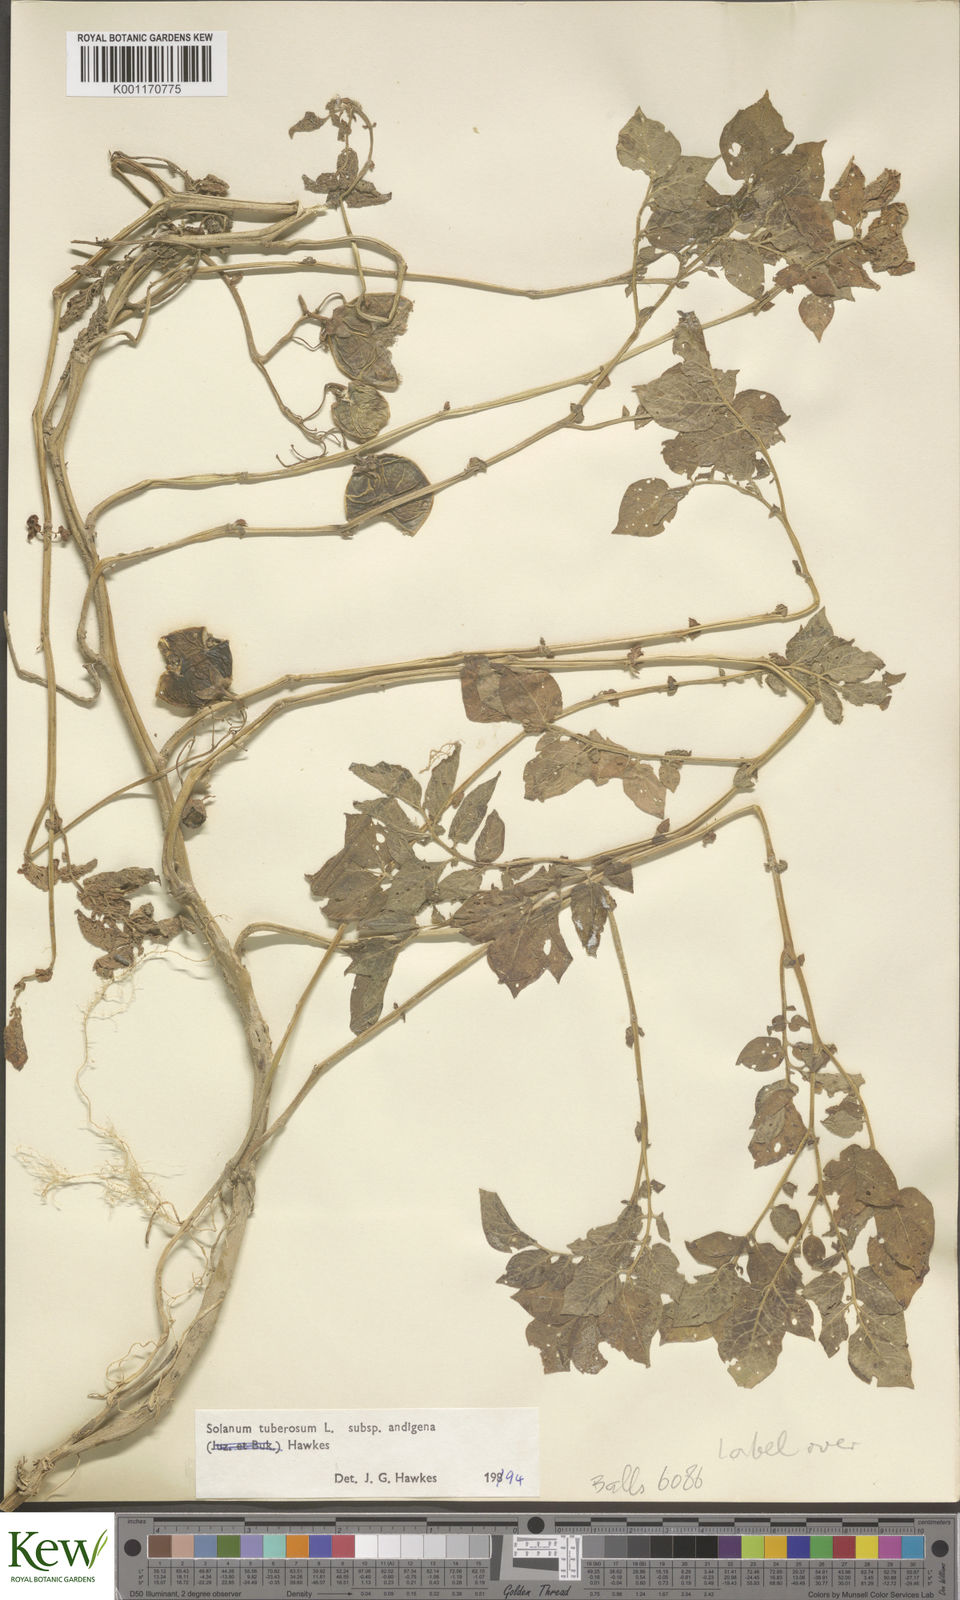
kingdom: Plantae
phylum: Tracheophyta
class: Magnoliopsida
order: Solanales
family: Solanaceae
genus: Solanum
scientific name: Solanum tuberosum
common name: Potato
